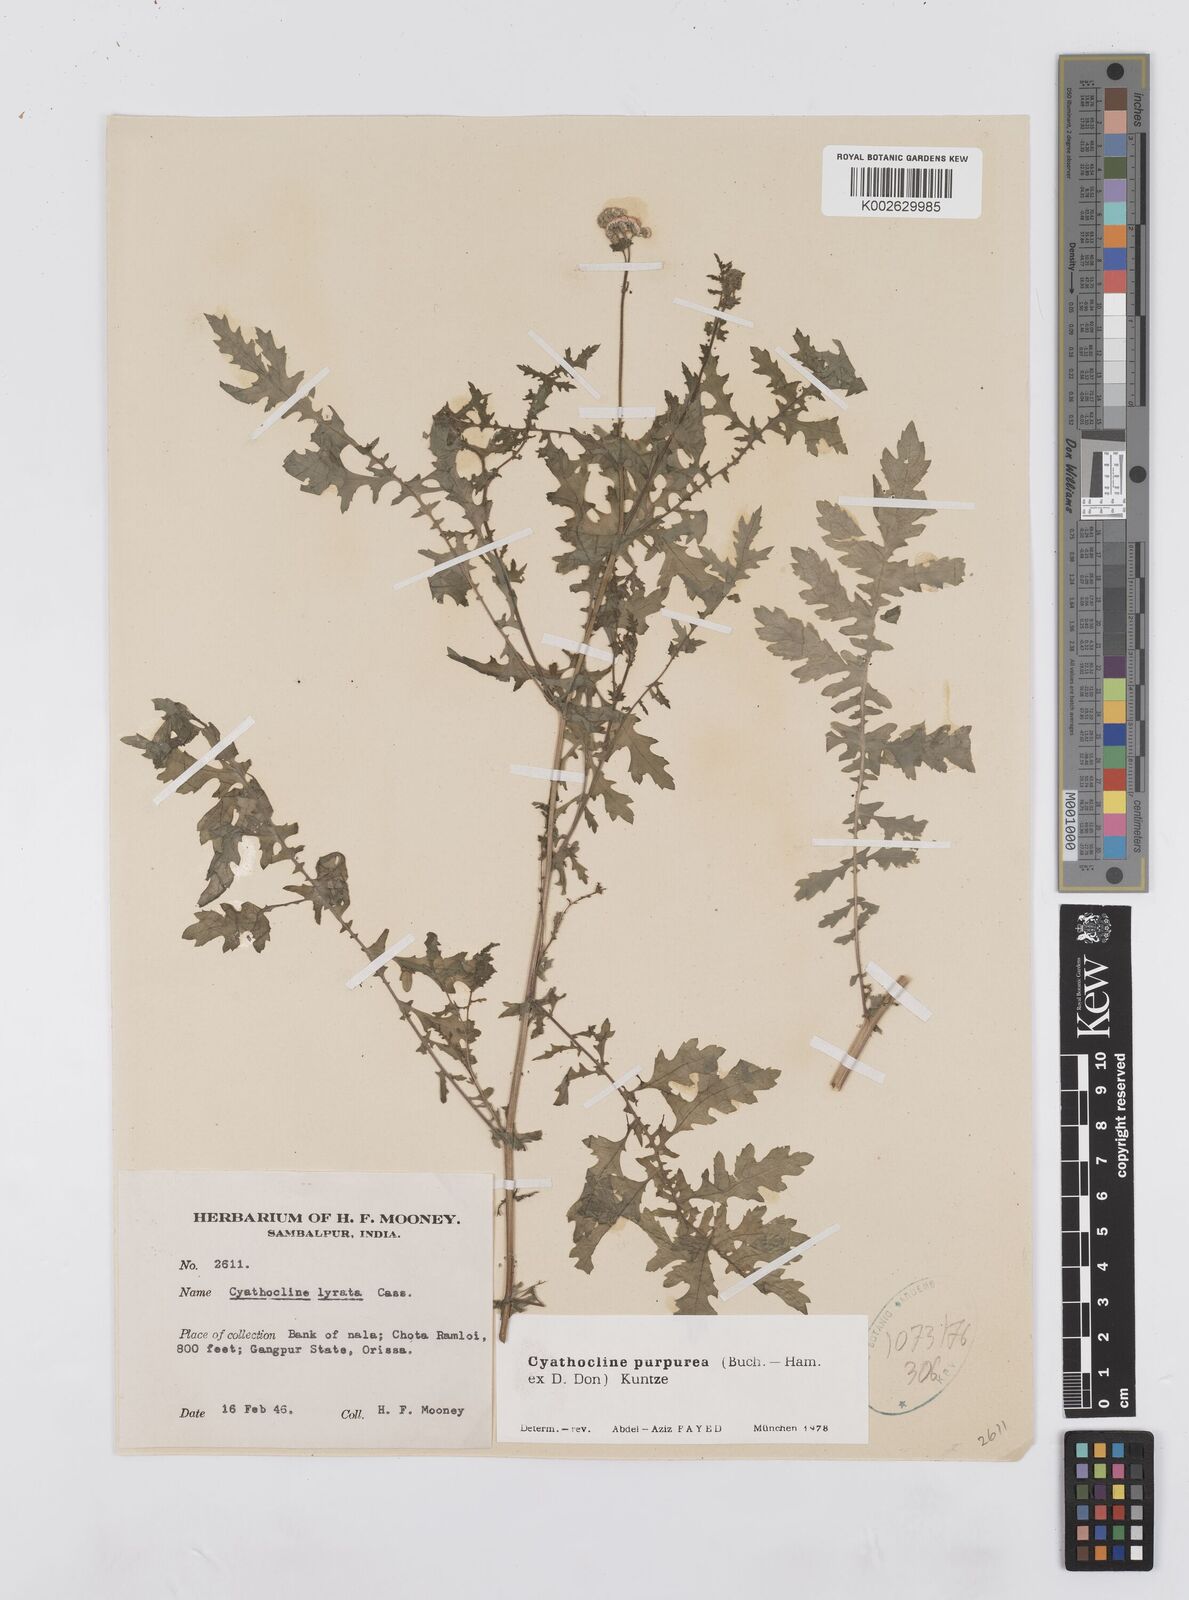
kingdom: Plantae
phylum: Tracheophyta
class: Magnoliopsida
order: Asterales
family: Asteraceae
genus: Cyathocline
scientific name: Cyathocline purpurea
